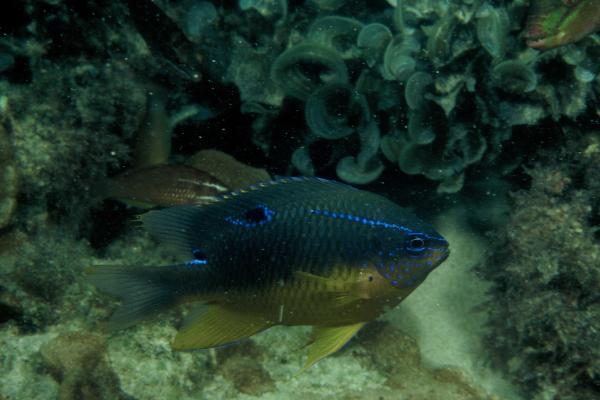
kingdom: Animalia
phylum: Chordata
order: Perciformes
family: Pomacentridae
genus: Neoglyphidodon
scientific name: Neoglyphidodon polyacanthus
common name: Multi-spined damsel
